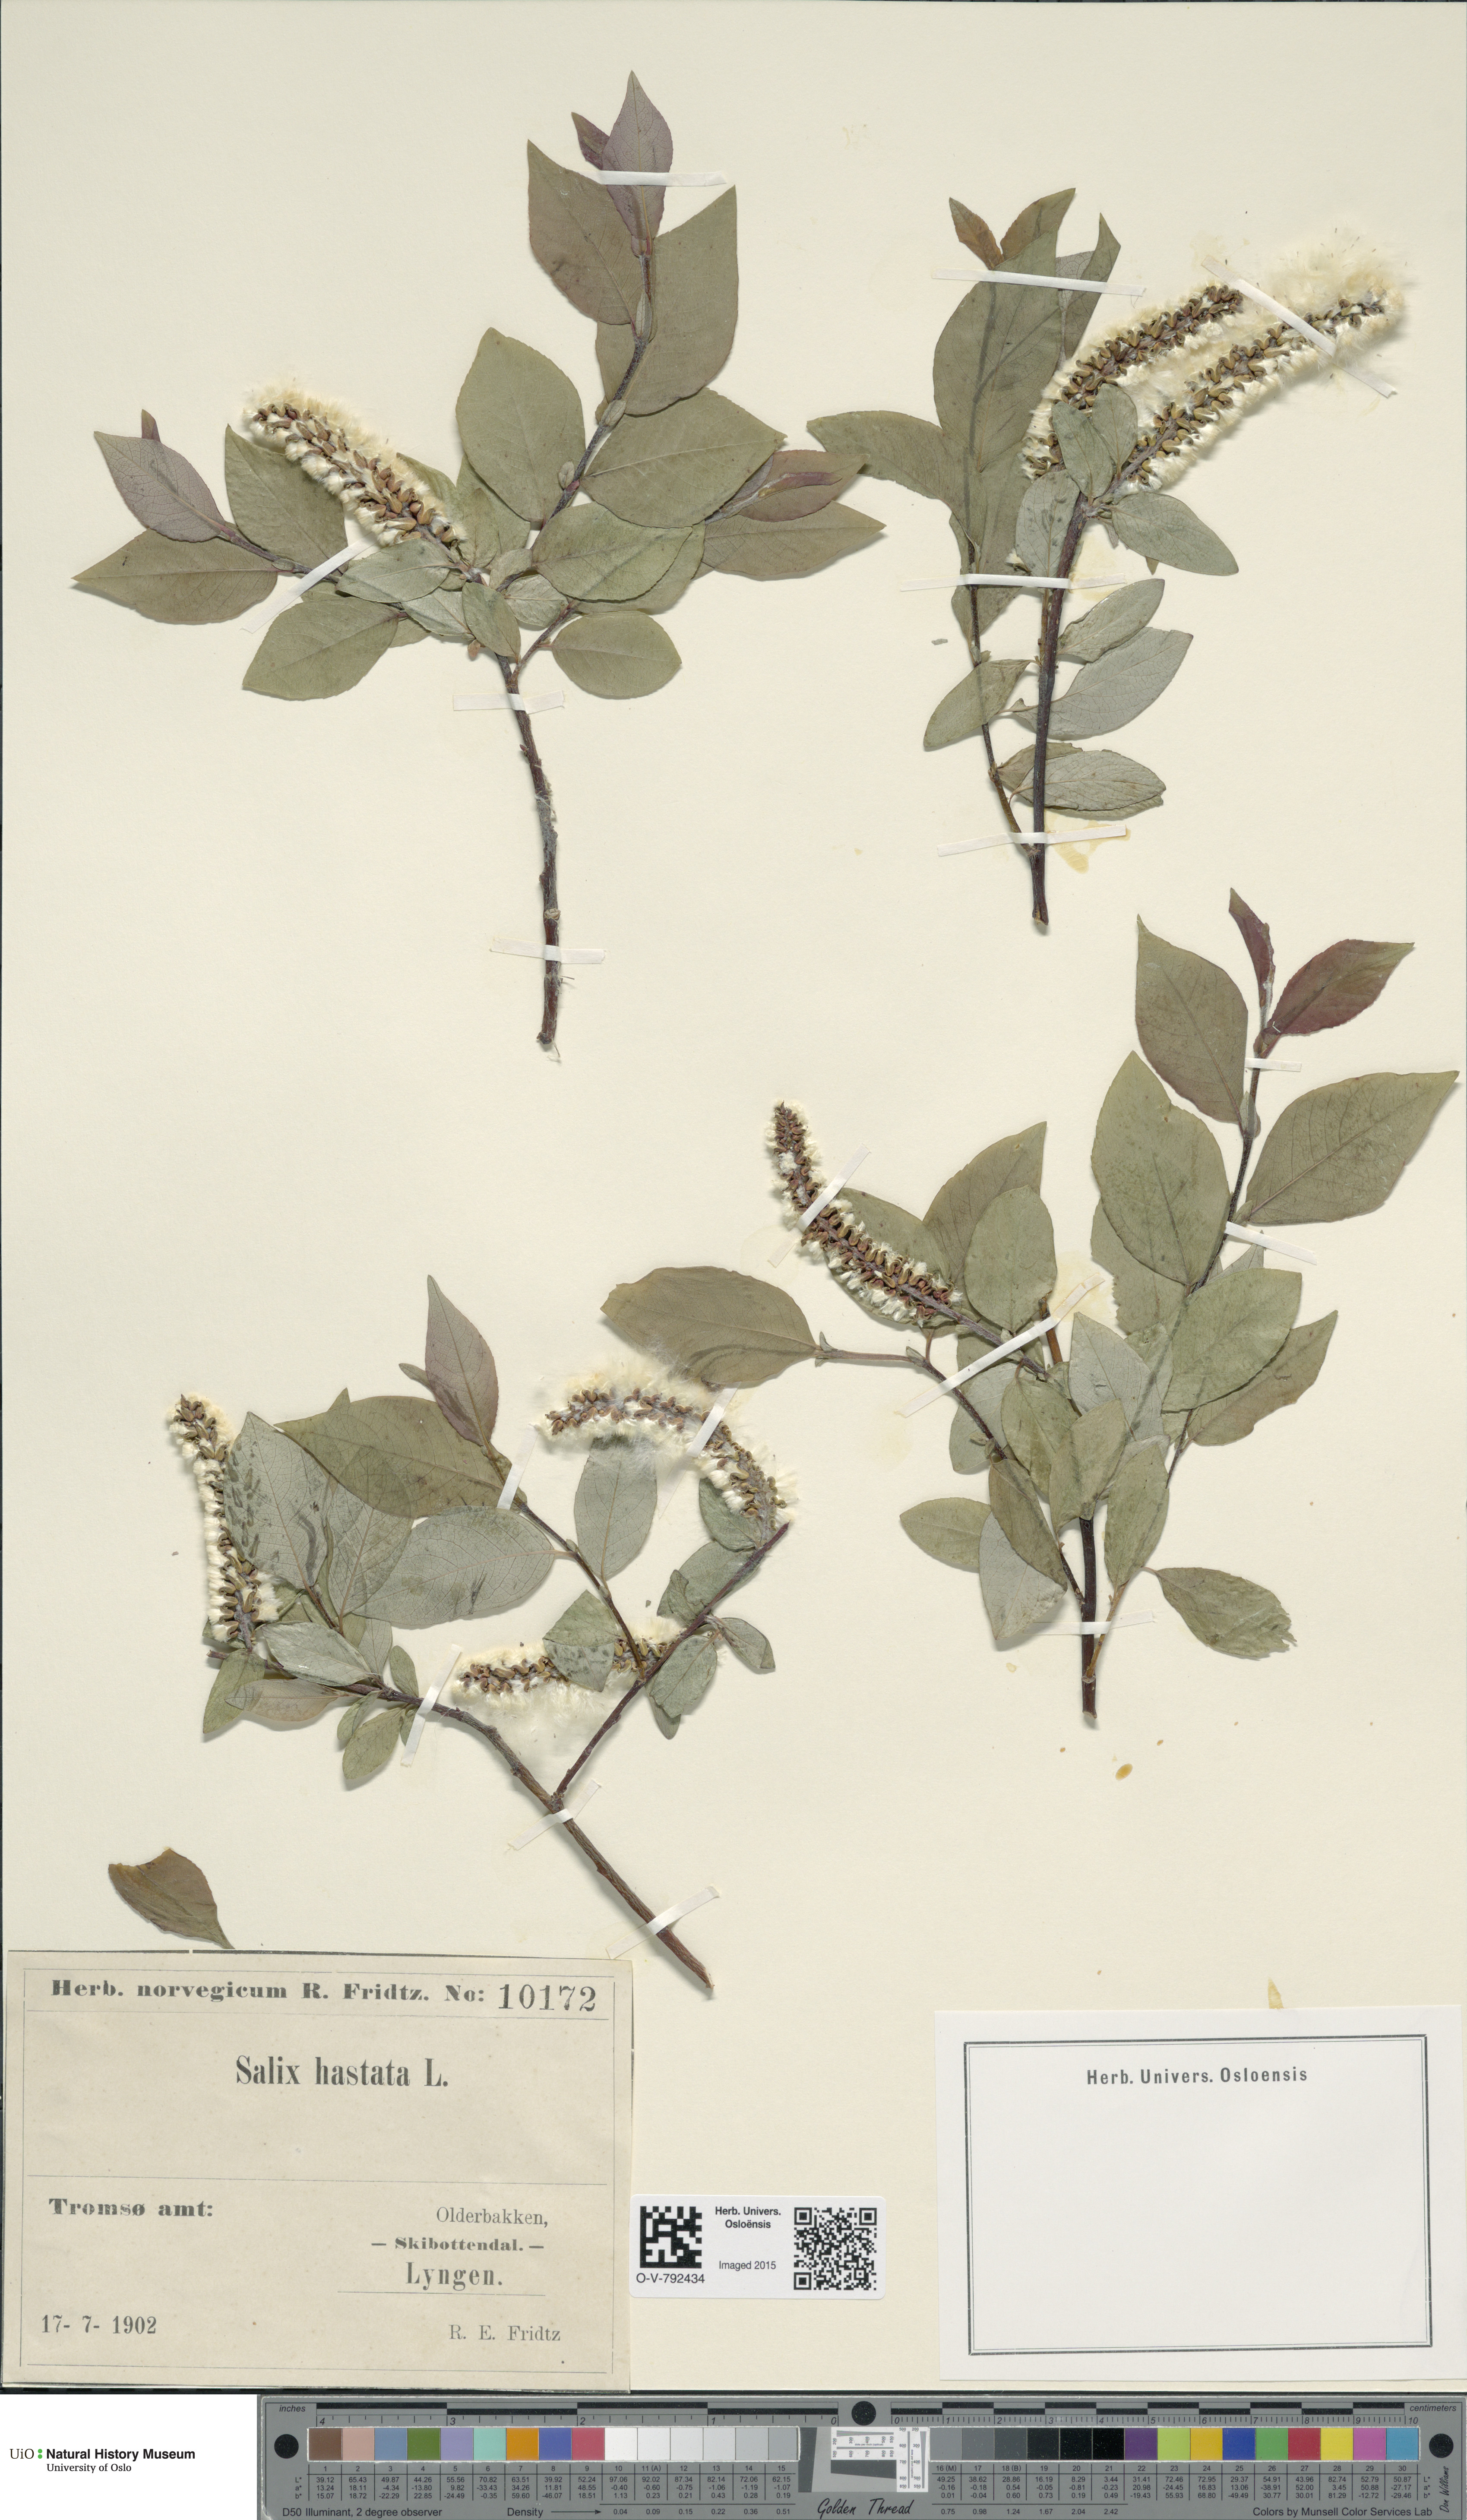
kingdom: Plantae
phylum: Tracheophyta
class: Magnoliopsida
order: Malpighiales
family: Salicaceae
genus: Salix
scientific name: Salix hastata
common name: Halberd willow
